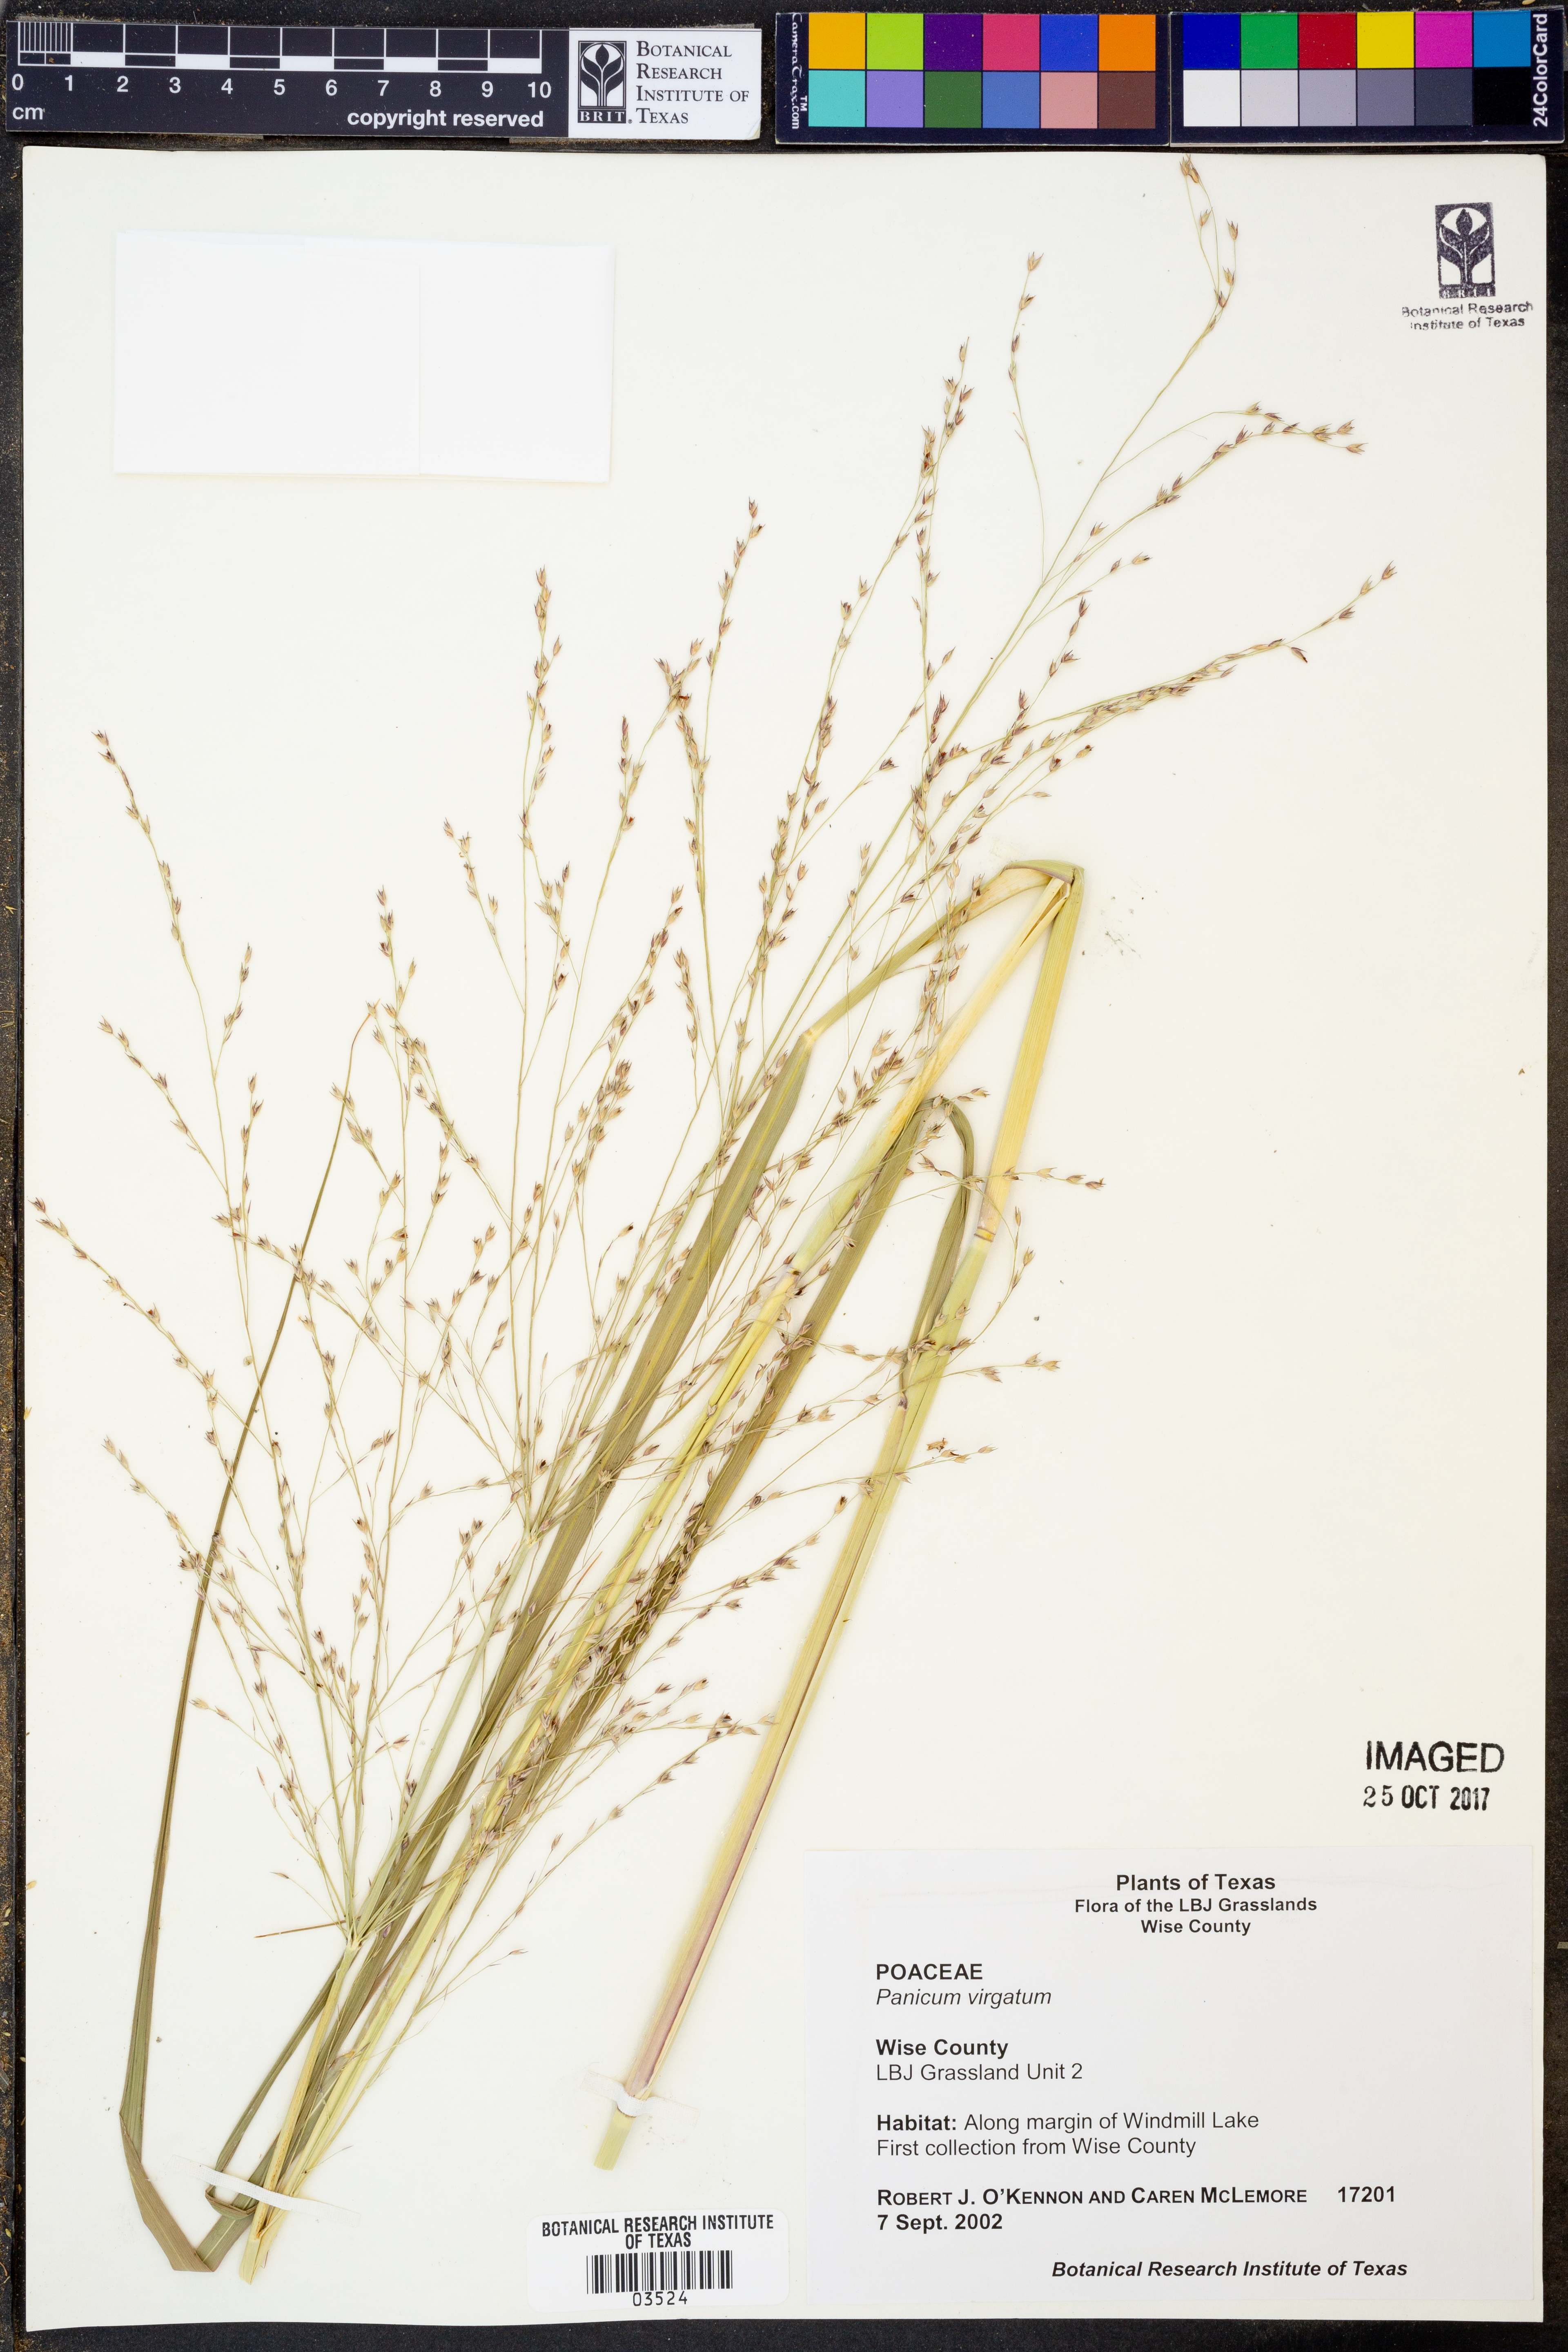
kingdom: Plantae
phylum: Tracheophyta
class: Liliopsida
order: Poales
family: Poaceae
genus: Panicum
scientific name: Panicum virgatum
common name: Switchgrass
